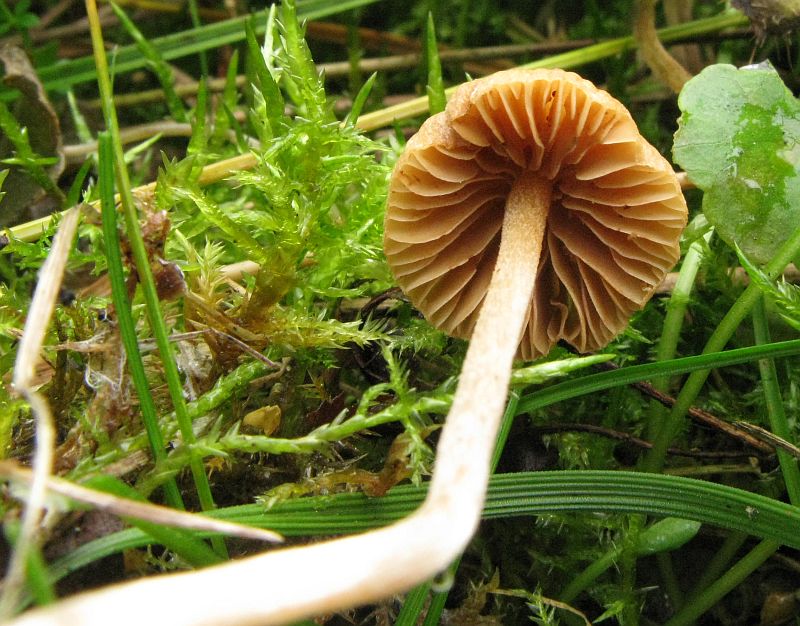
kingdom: Fungi
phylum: Basidiomycota
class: Agaricomycetes
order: Agaricales
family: Hymenogastraceae
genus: Galerina
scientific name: Galerina clavata
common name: kær-hjelmhat
